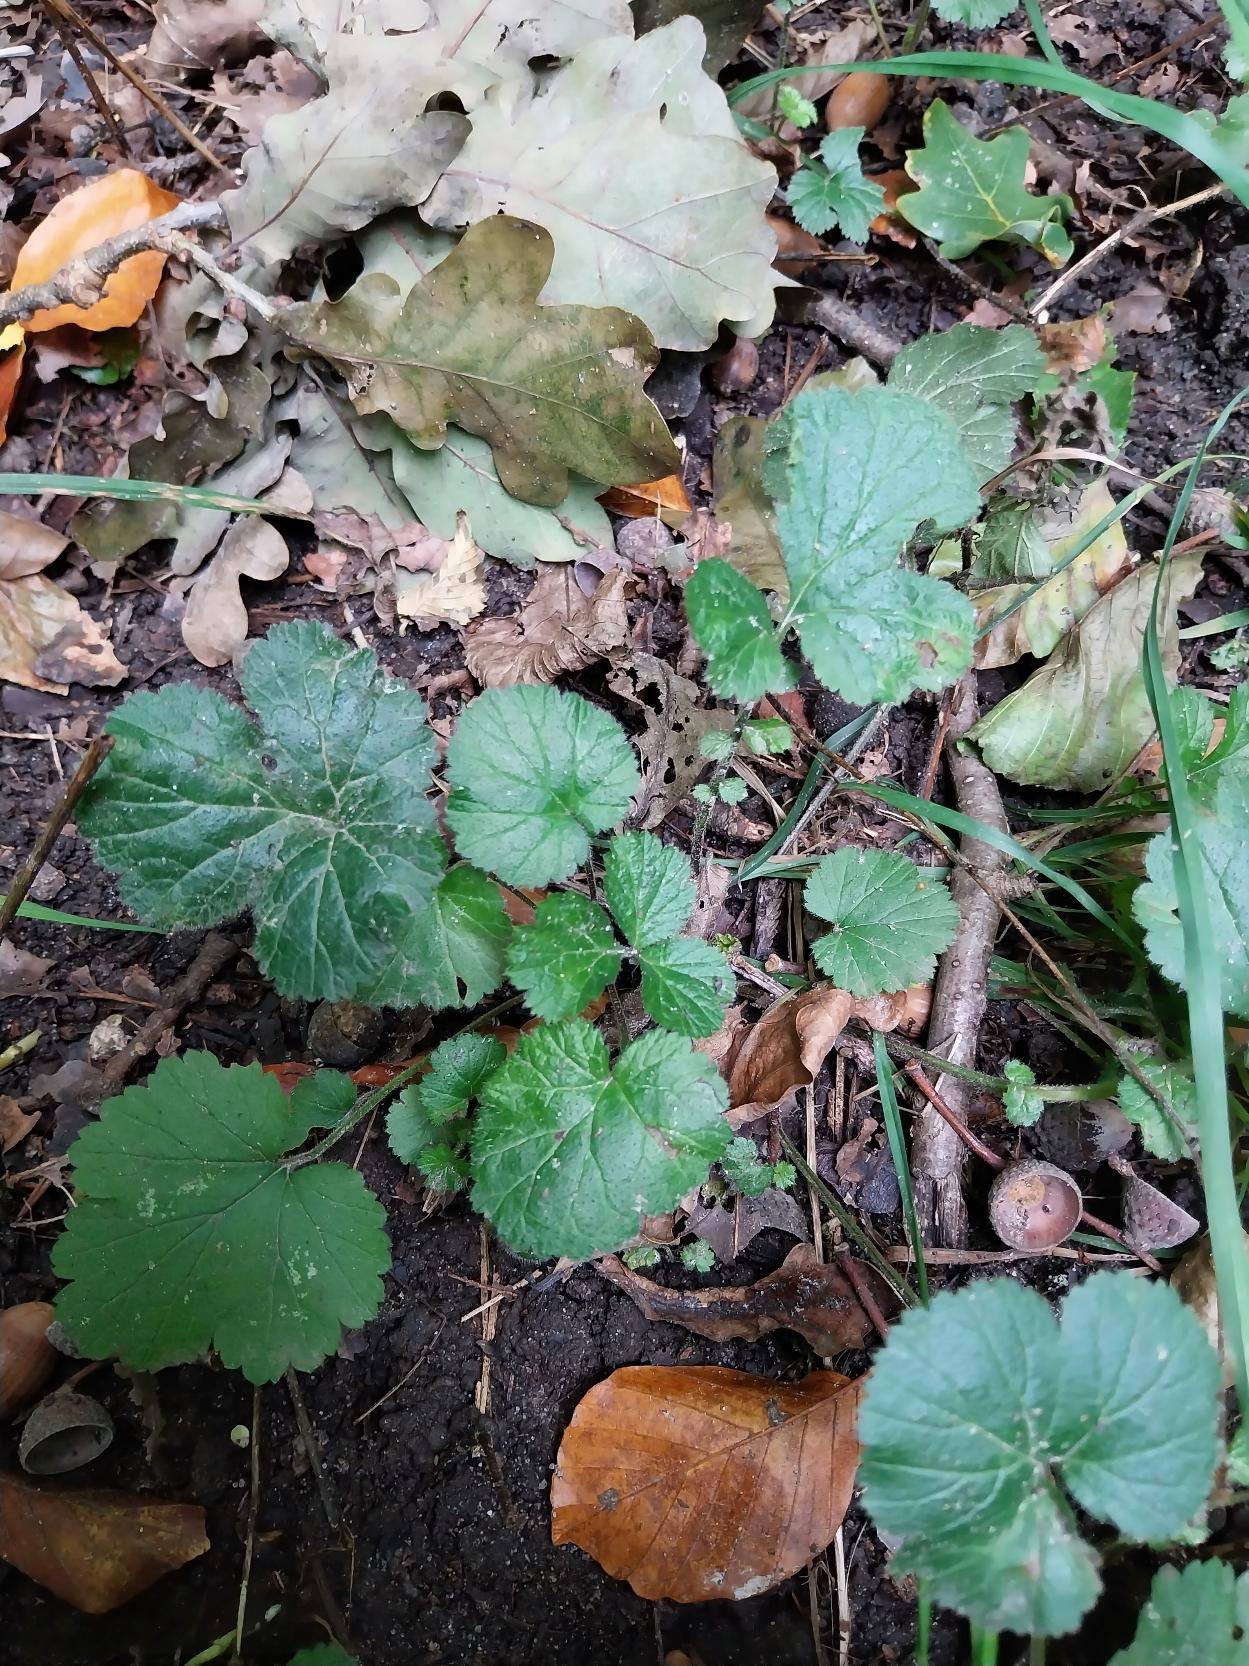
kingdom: Plantae
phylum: Tracheophyta
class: Magnoliopsida
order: Rosales
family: Rosaceae
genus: Geum
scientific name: Geum urbanum
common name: Feber-nellikerod
